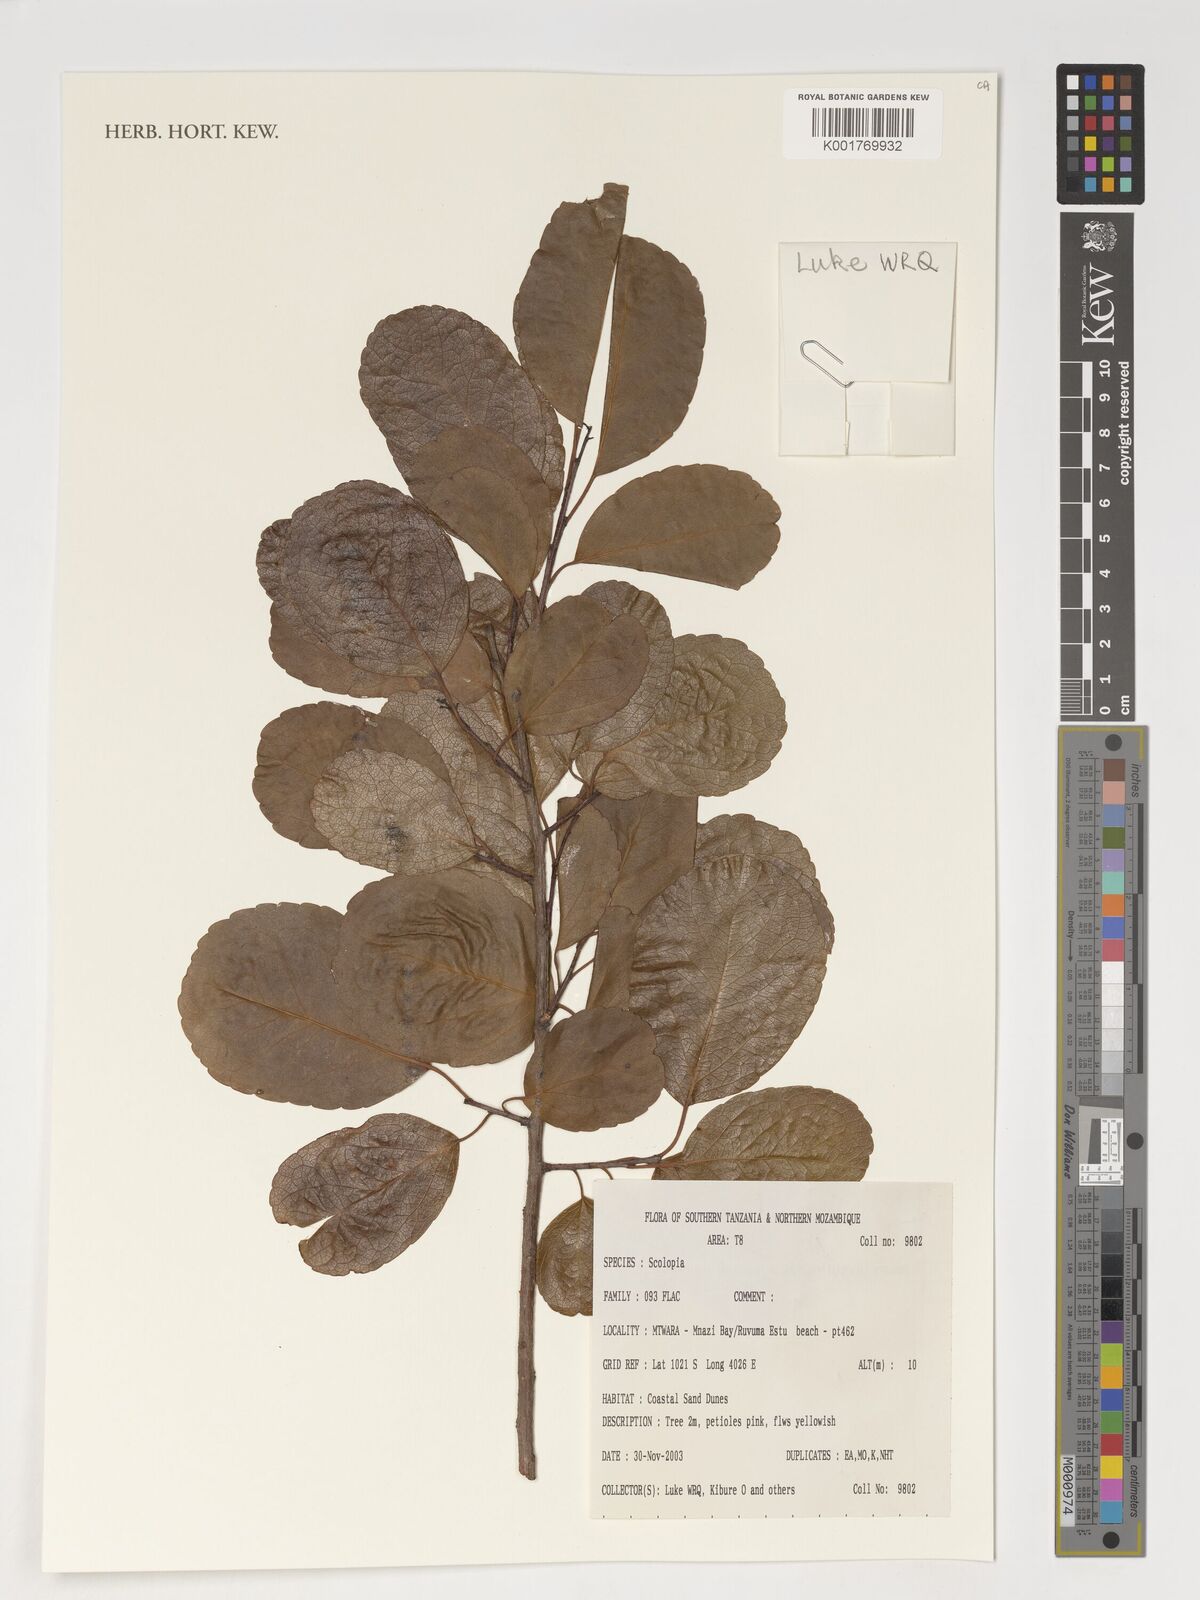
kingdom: Plantae
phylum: Tracheophyta
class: Magnoliopsida
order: Malpighiales
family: Salicaceae
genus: Scolopia
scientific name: Scolopia
